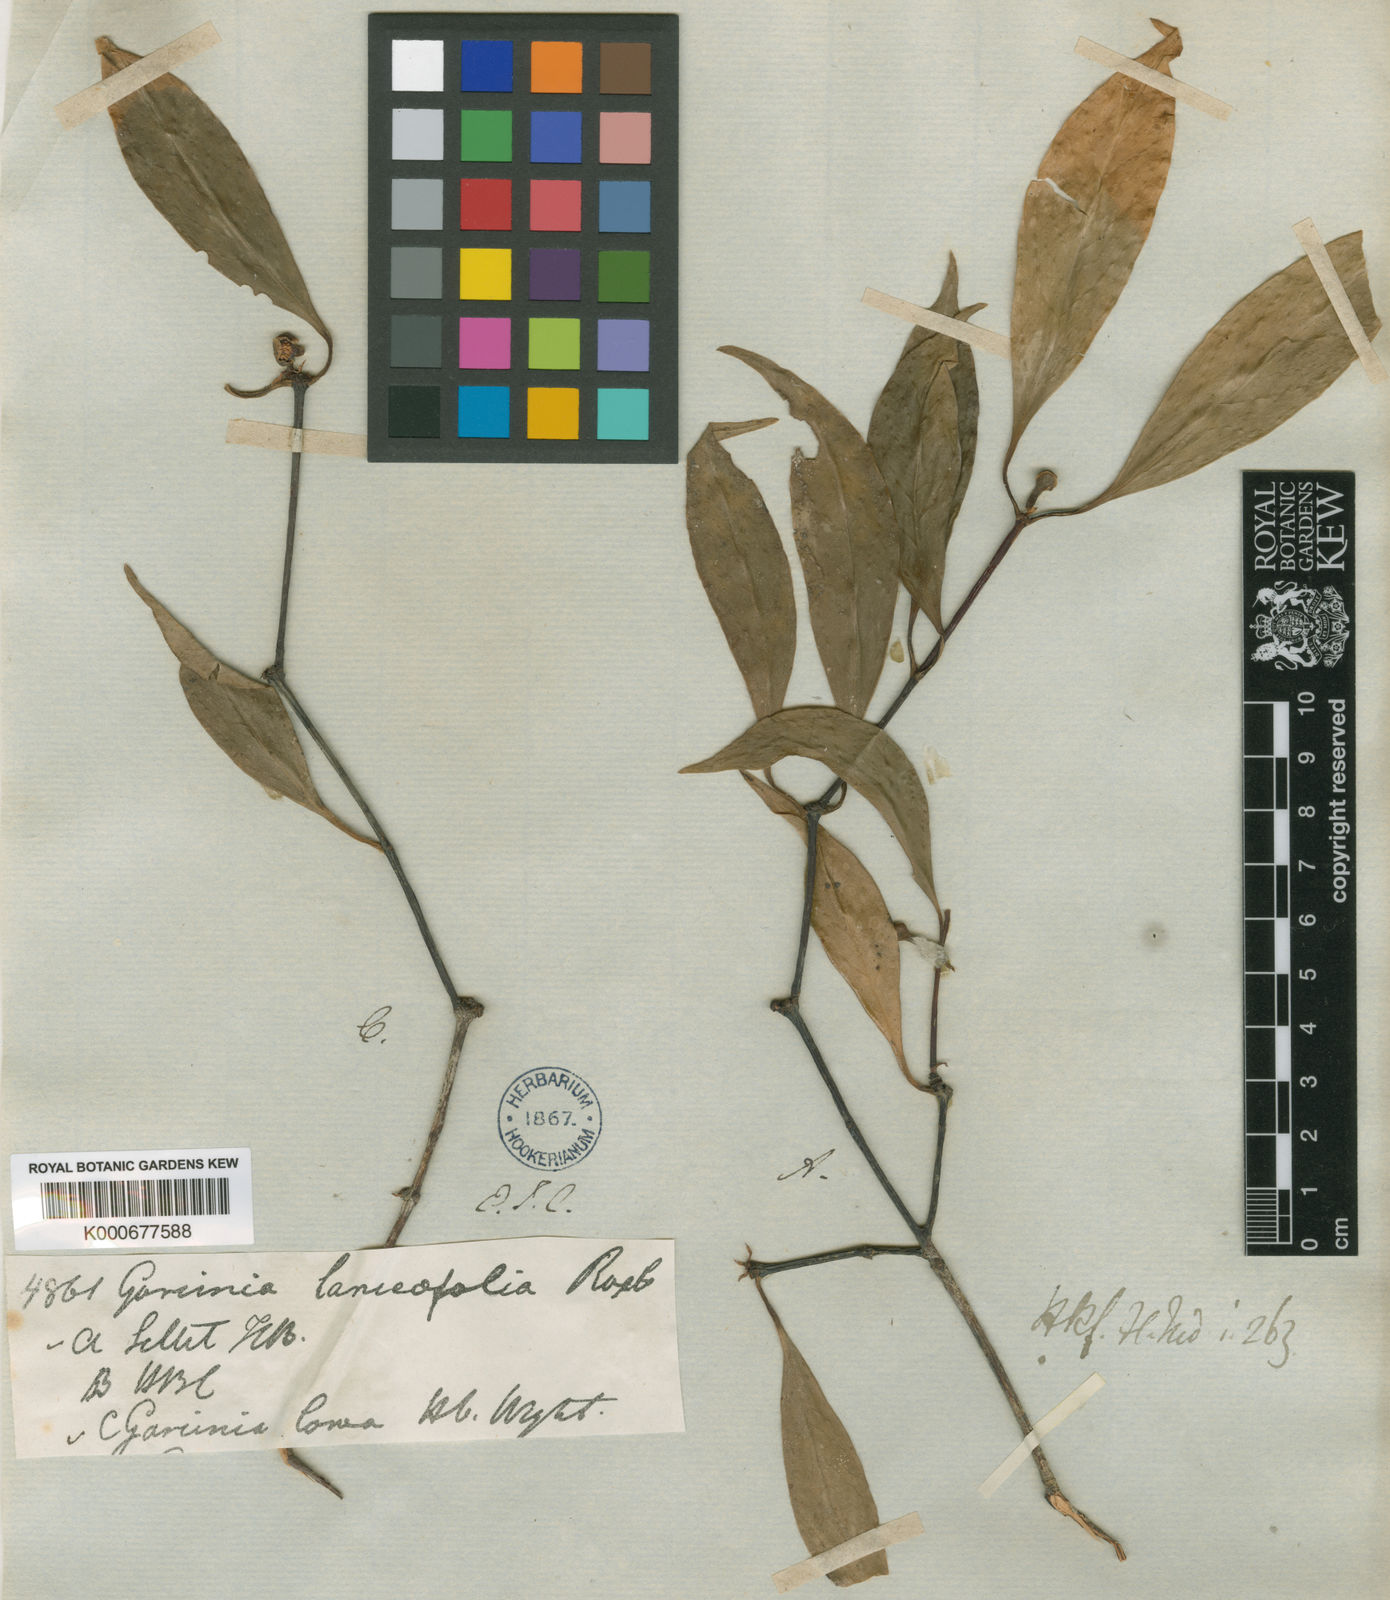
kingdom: Plantae
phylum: Tracheophyta
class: Magnoliopsida
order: Malpighiales
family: Clusiaceae
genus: Garcinia
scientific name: Garcinia lanceifolia
